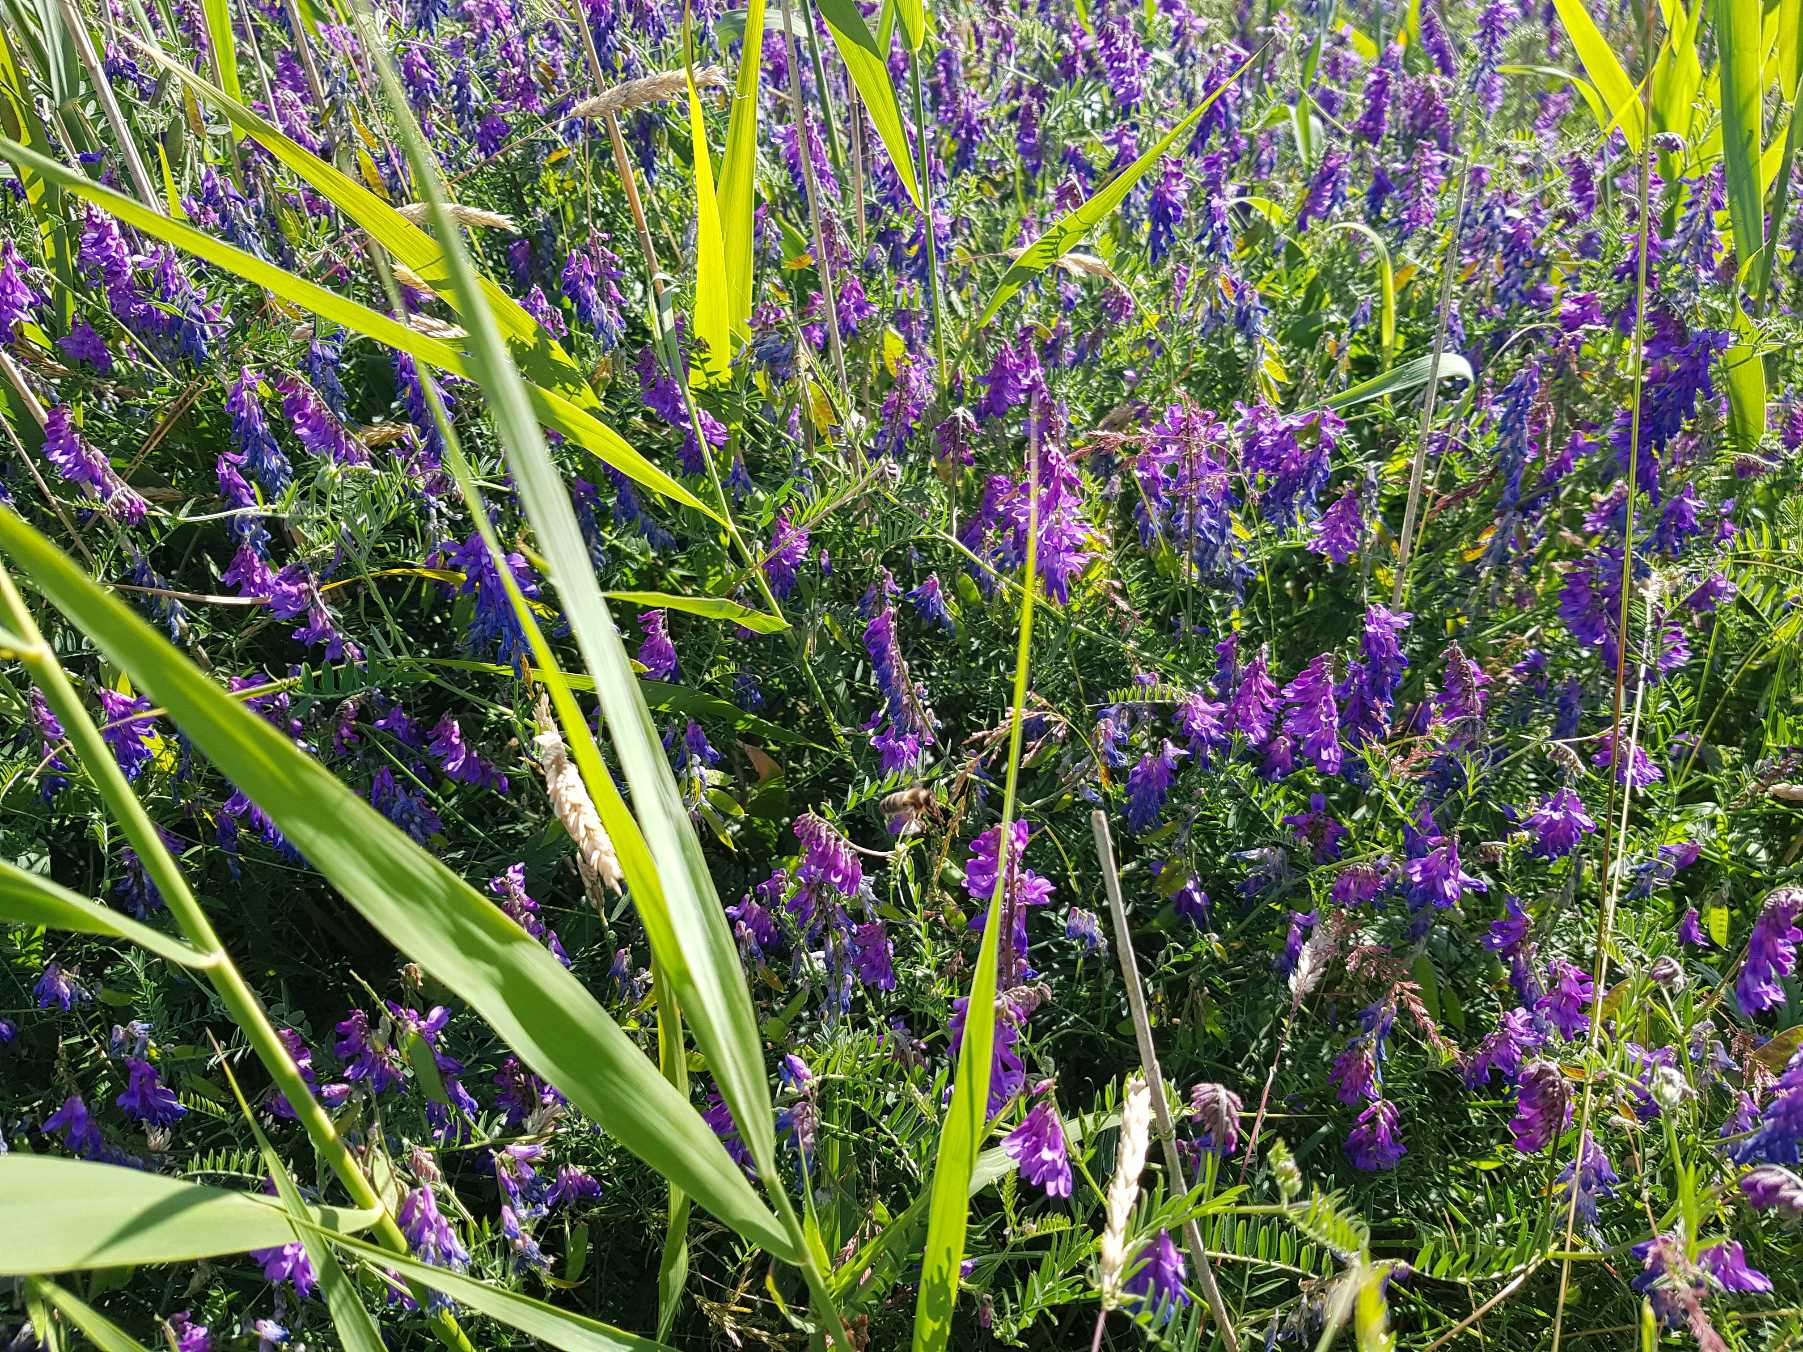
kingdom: Plantae
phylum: Tracheophyta
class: Magnoliopsida
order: Fabales
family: Fabaceae
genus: Vicia
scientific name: Vicia cracca
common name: Muse-vikke
